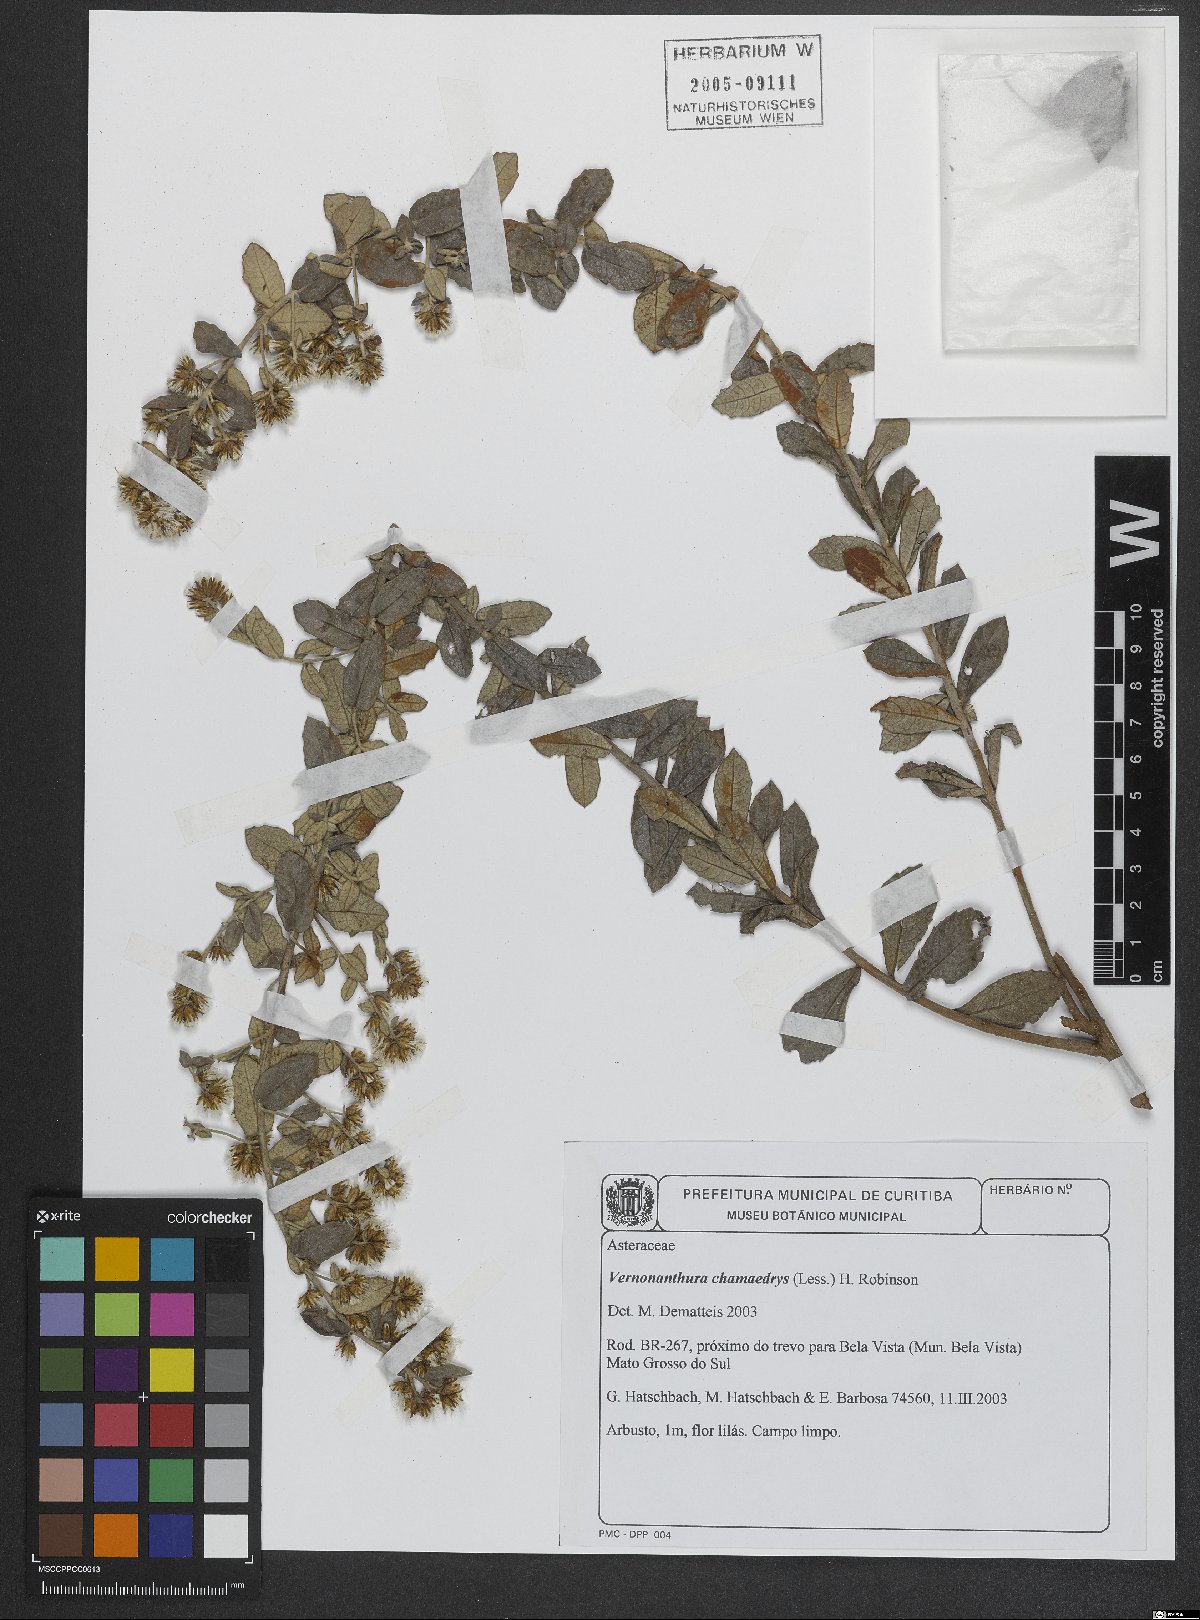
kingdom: Plantae
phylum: Tracheophyta
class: Magnoliopsida
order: Asterales
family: Asteraceae
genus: Vernonanthura
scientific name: Vernonanthura chamaedrys
